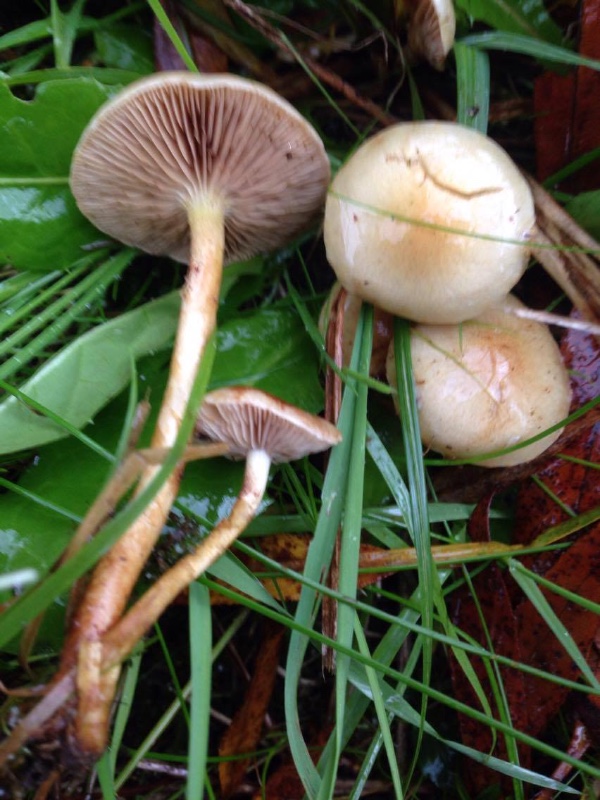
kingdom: Fungi
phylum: Basidiomycota
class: Agaricomycetes
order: Agaricales
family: Strophariaceae
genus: Pholiota
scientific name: Pholiota conissans
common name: pile-skælhat
